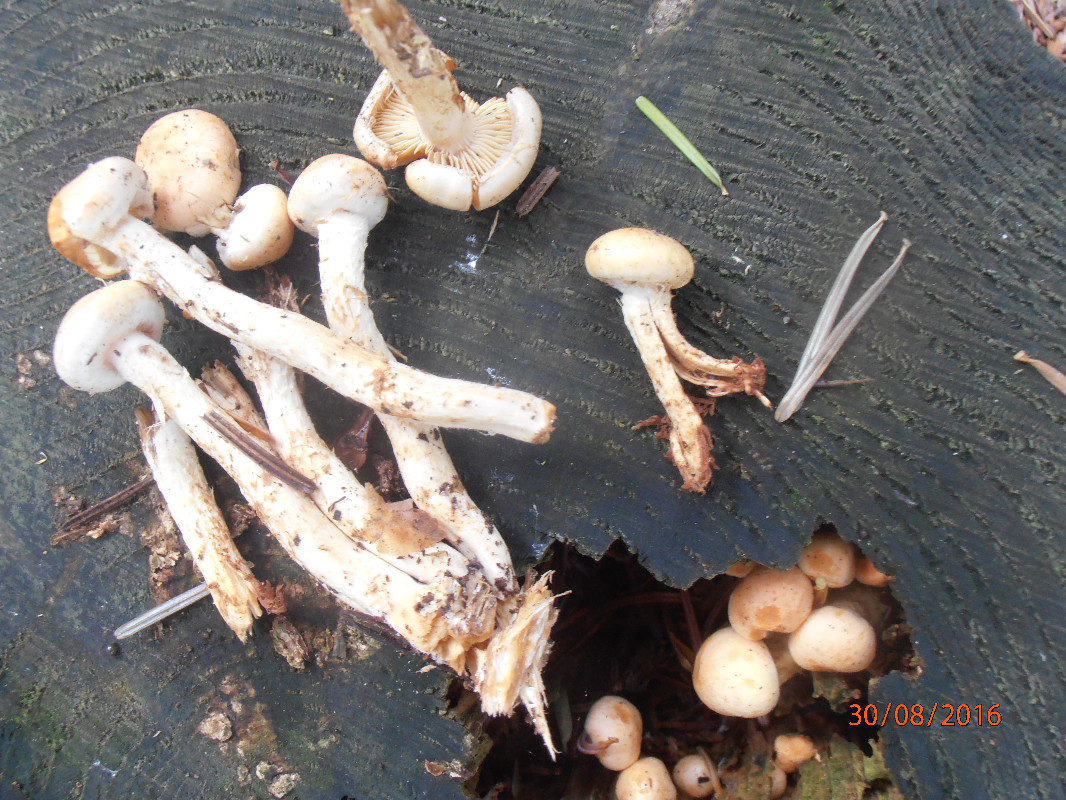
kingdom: Fungi
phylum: Basidiomycota
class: Agaricomycetes
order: Agaricales
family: Strophariaceae
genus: Hypholoma
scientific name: Hypholoma radicosum
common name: pælerods-svovlhat
